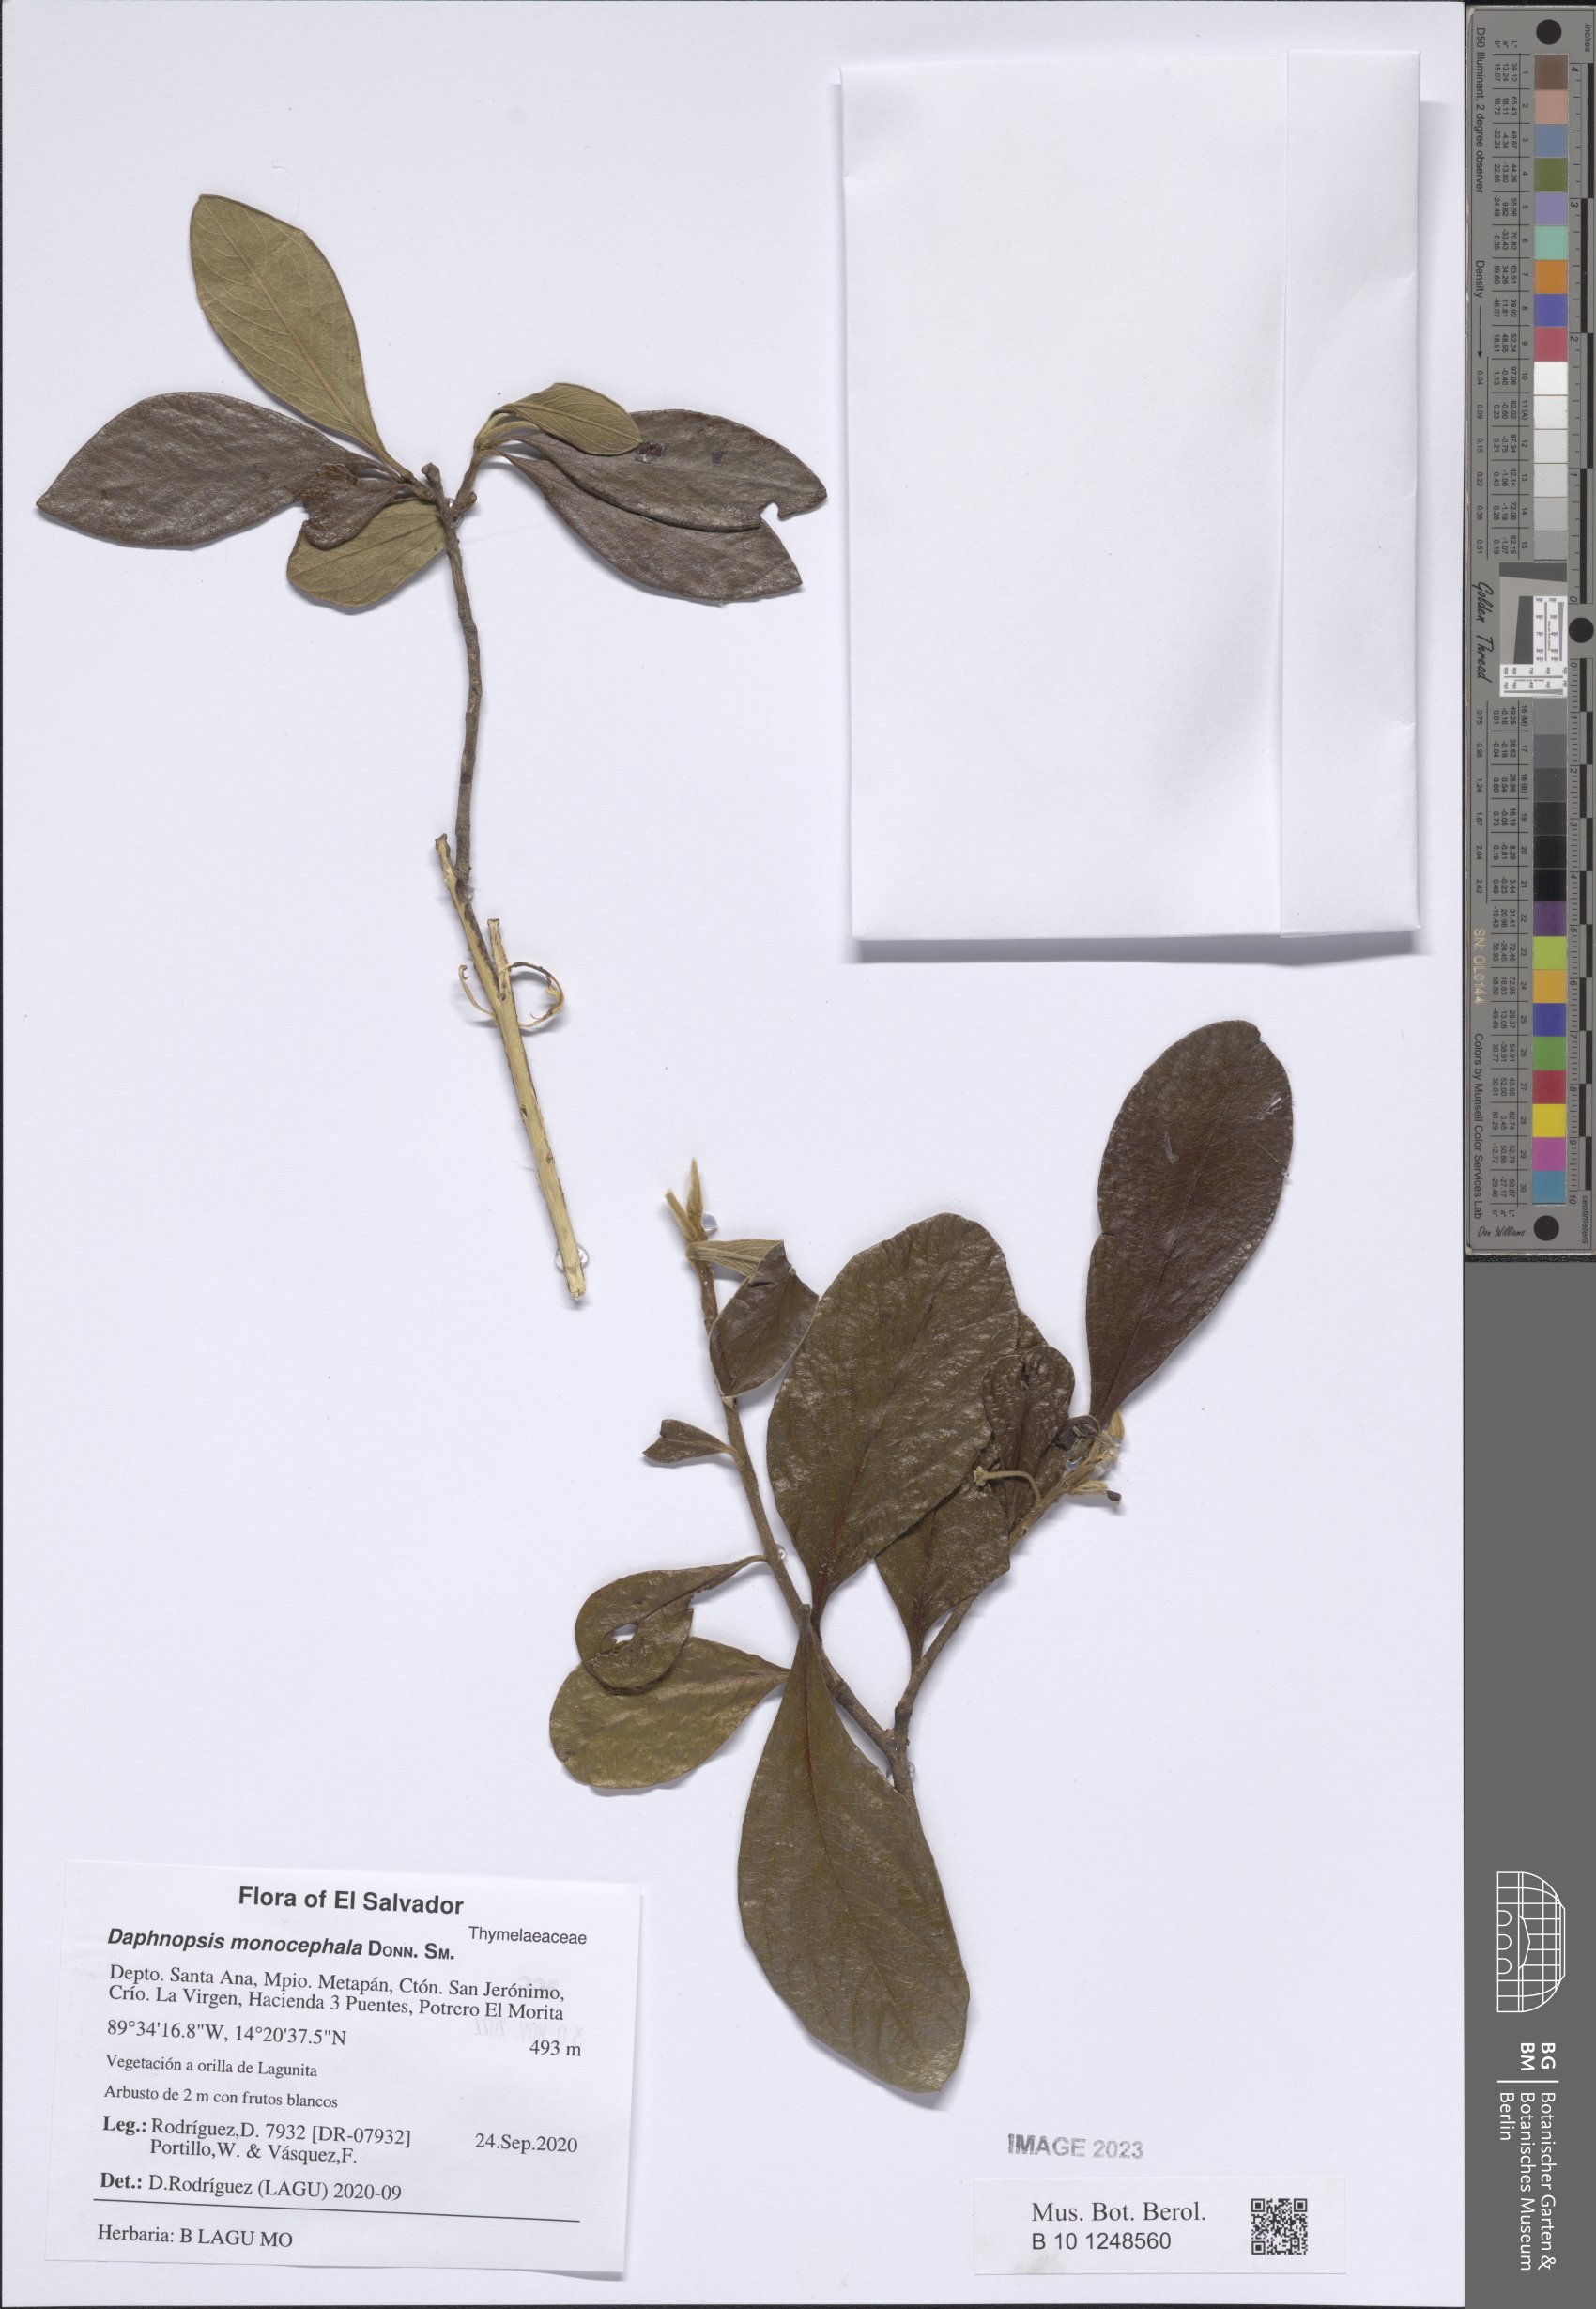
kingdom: Plantae
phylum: Tracheophyta
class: Magnoliopsida
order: Malvales
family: Thymelaeaceae
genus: Daphnopsis
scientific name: Daphnopsis monocephala
